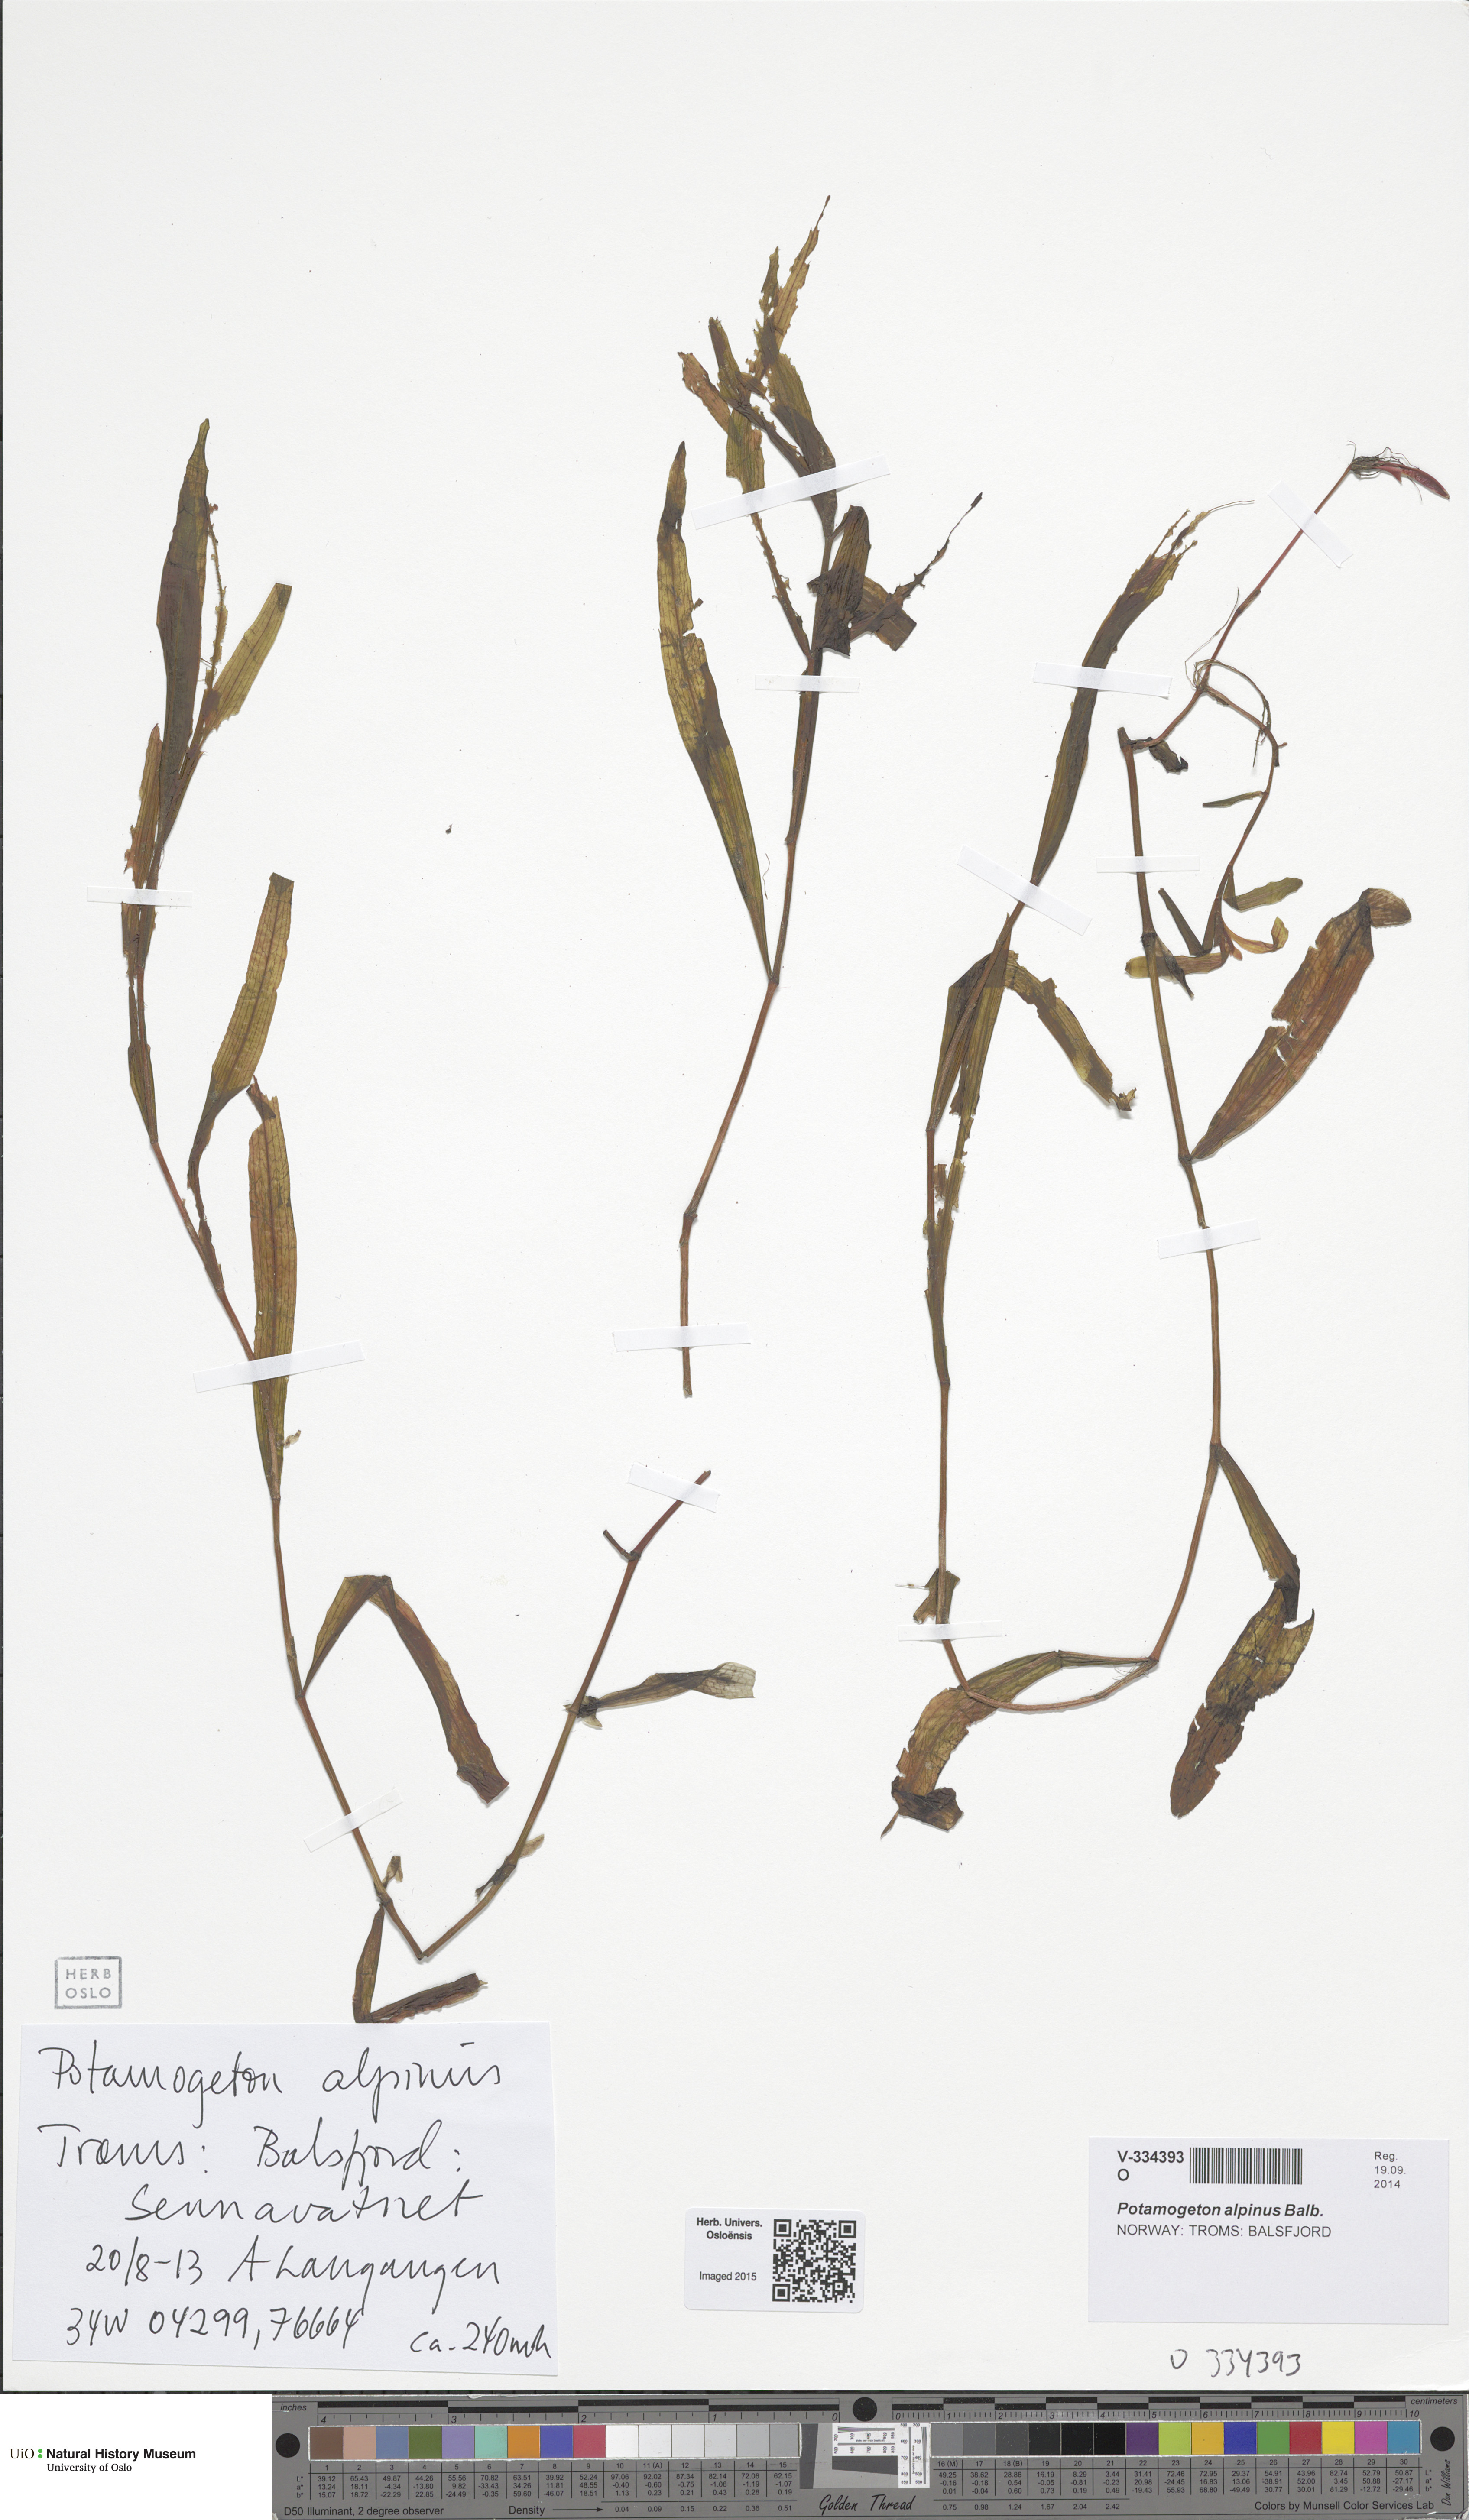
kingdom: Plantae
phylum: Tracheophyta
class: Liliopsida
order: Alismatales
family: Potamogetonaceae
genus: Potamogeton
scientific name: Potamogeton alpinus
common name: Red pondweed
